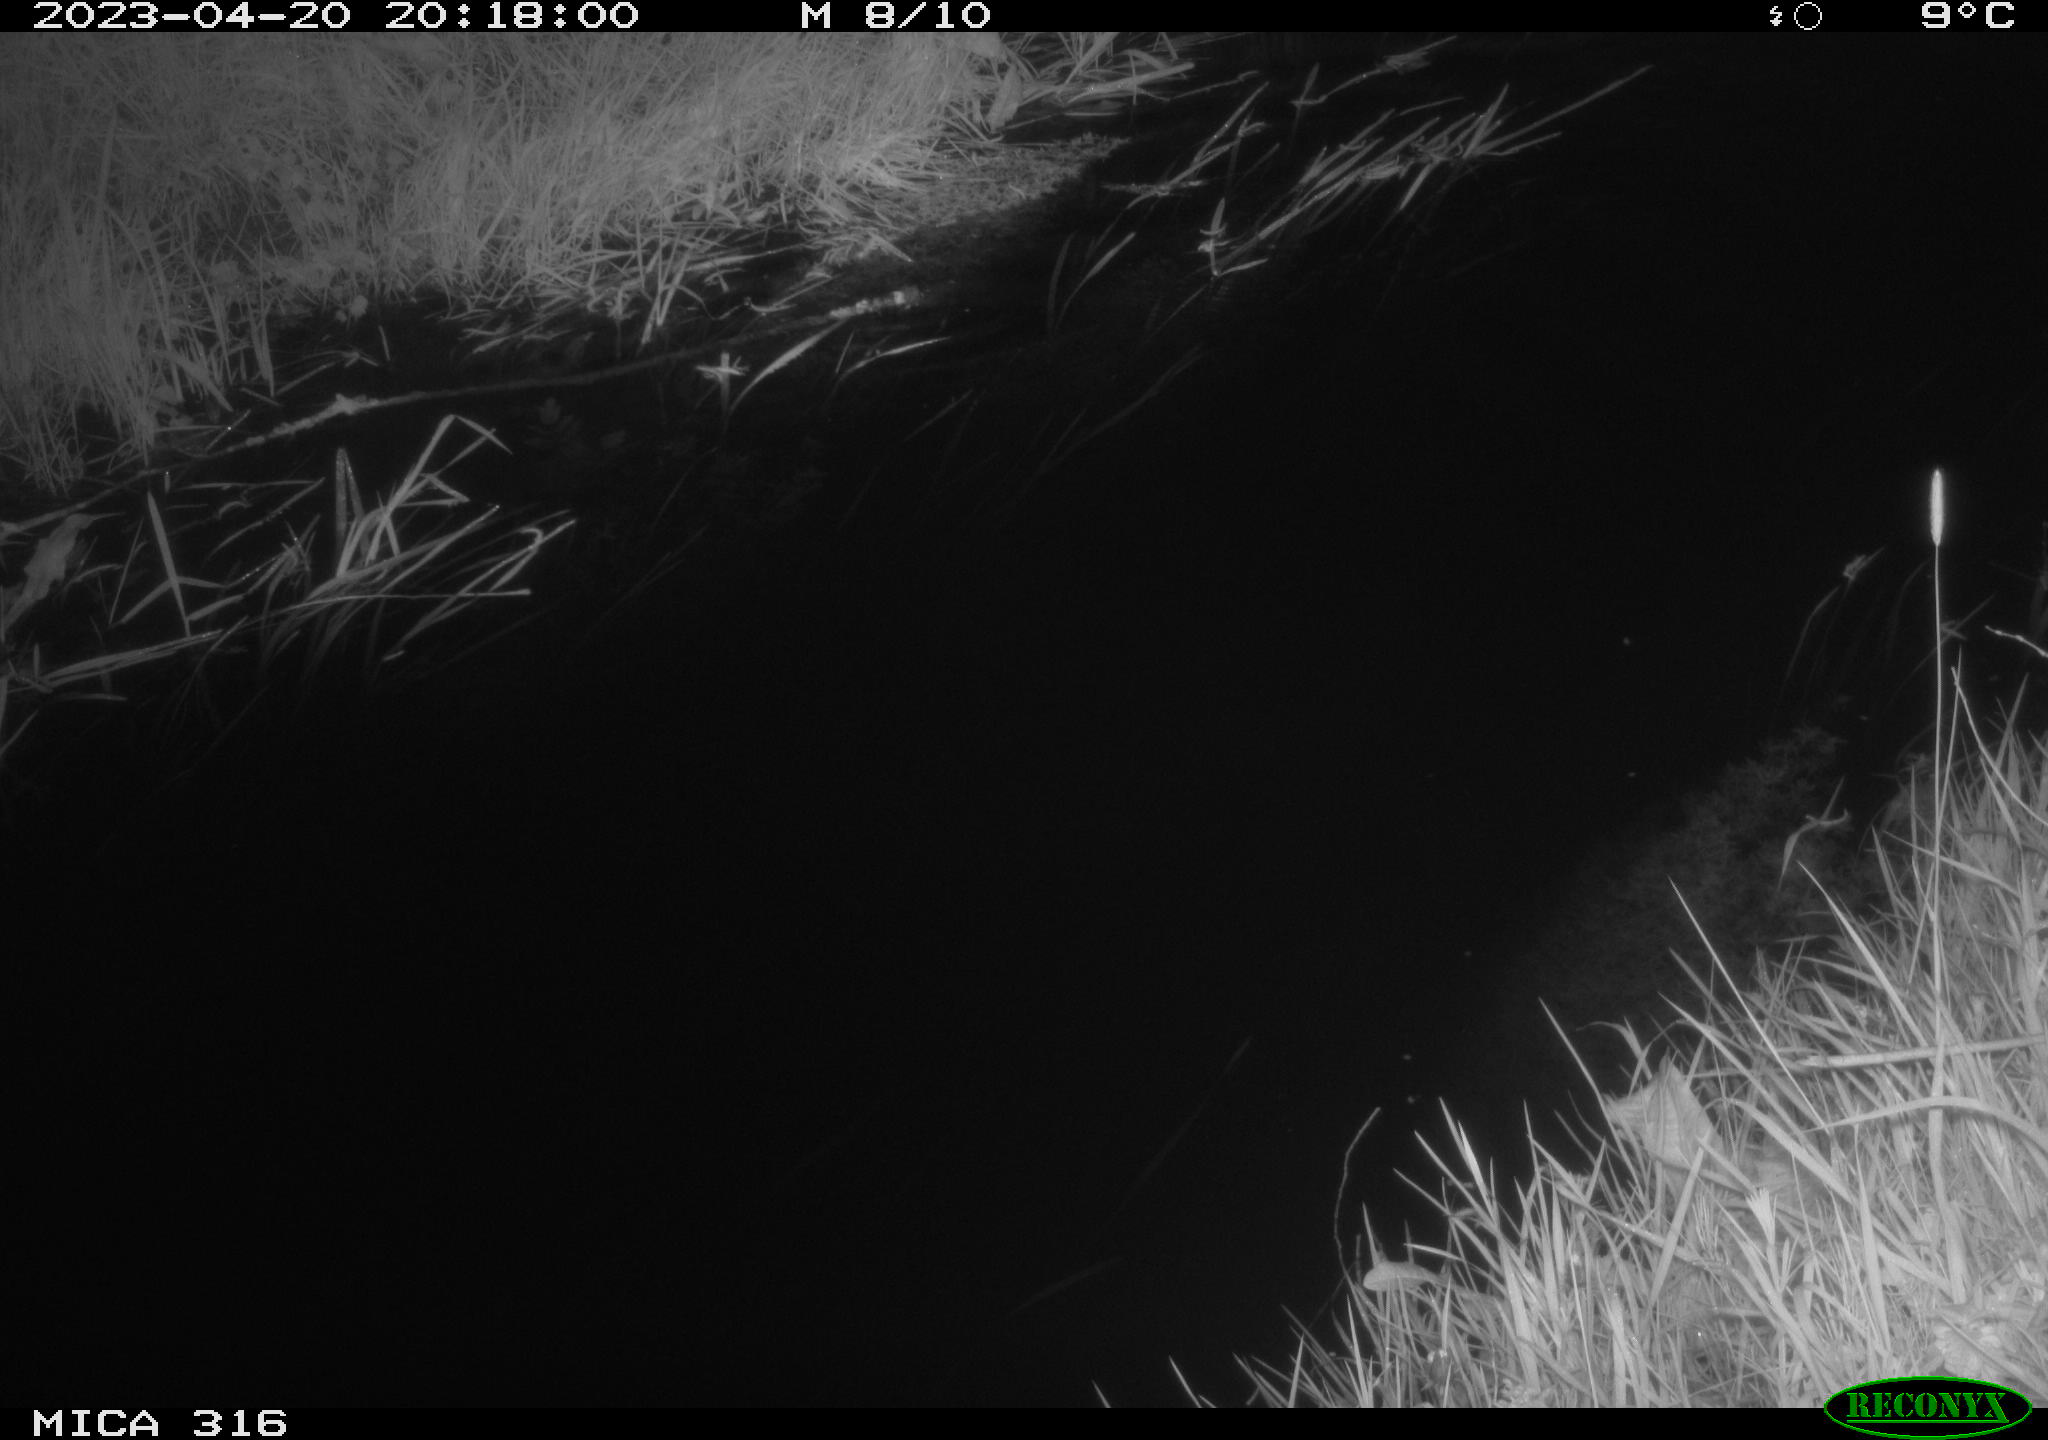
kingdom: Animalia
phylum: Chordata
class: Aves
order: Anseriformes
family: Anatidae
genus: Anas
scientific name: Anas
